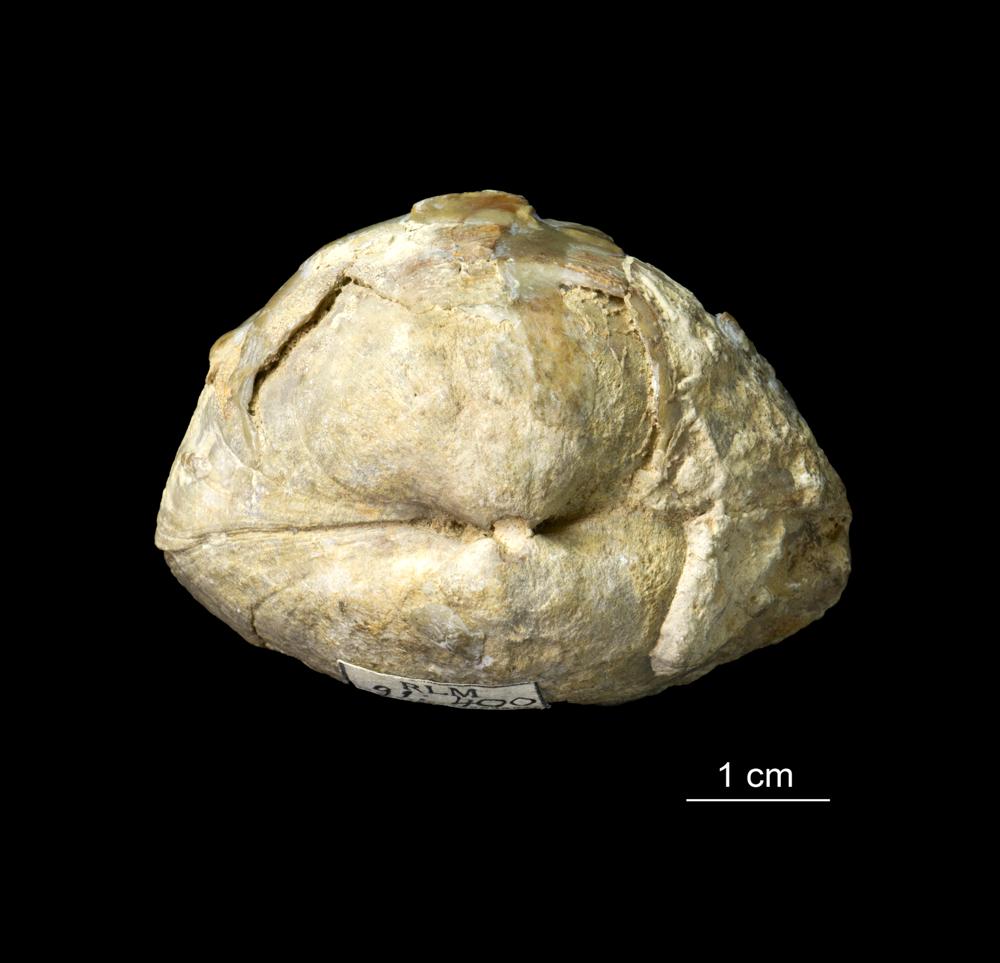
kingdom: Animalia
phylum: Brachiopoda
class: Rhynchonellata
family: Porambonitidae
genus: Porambonites
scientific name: Porambonites
